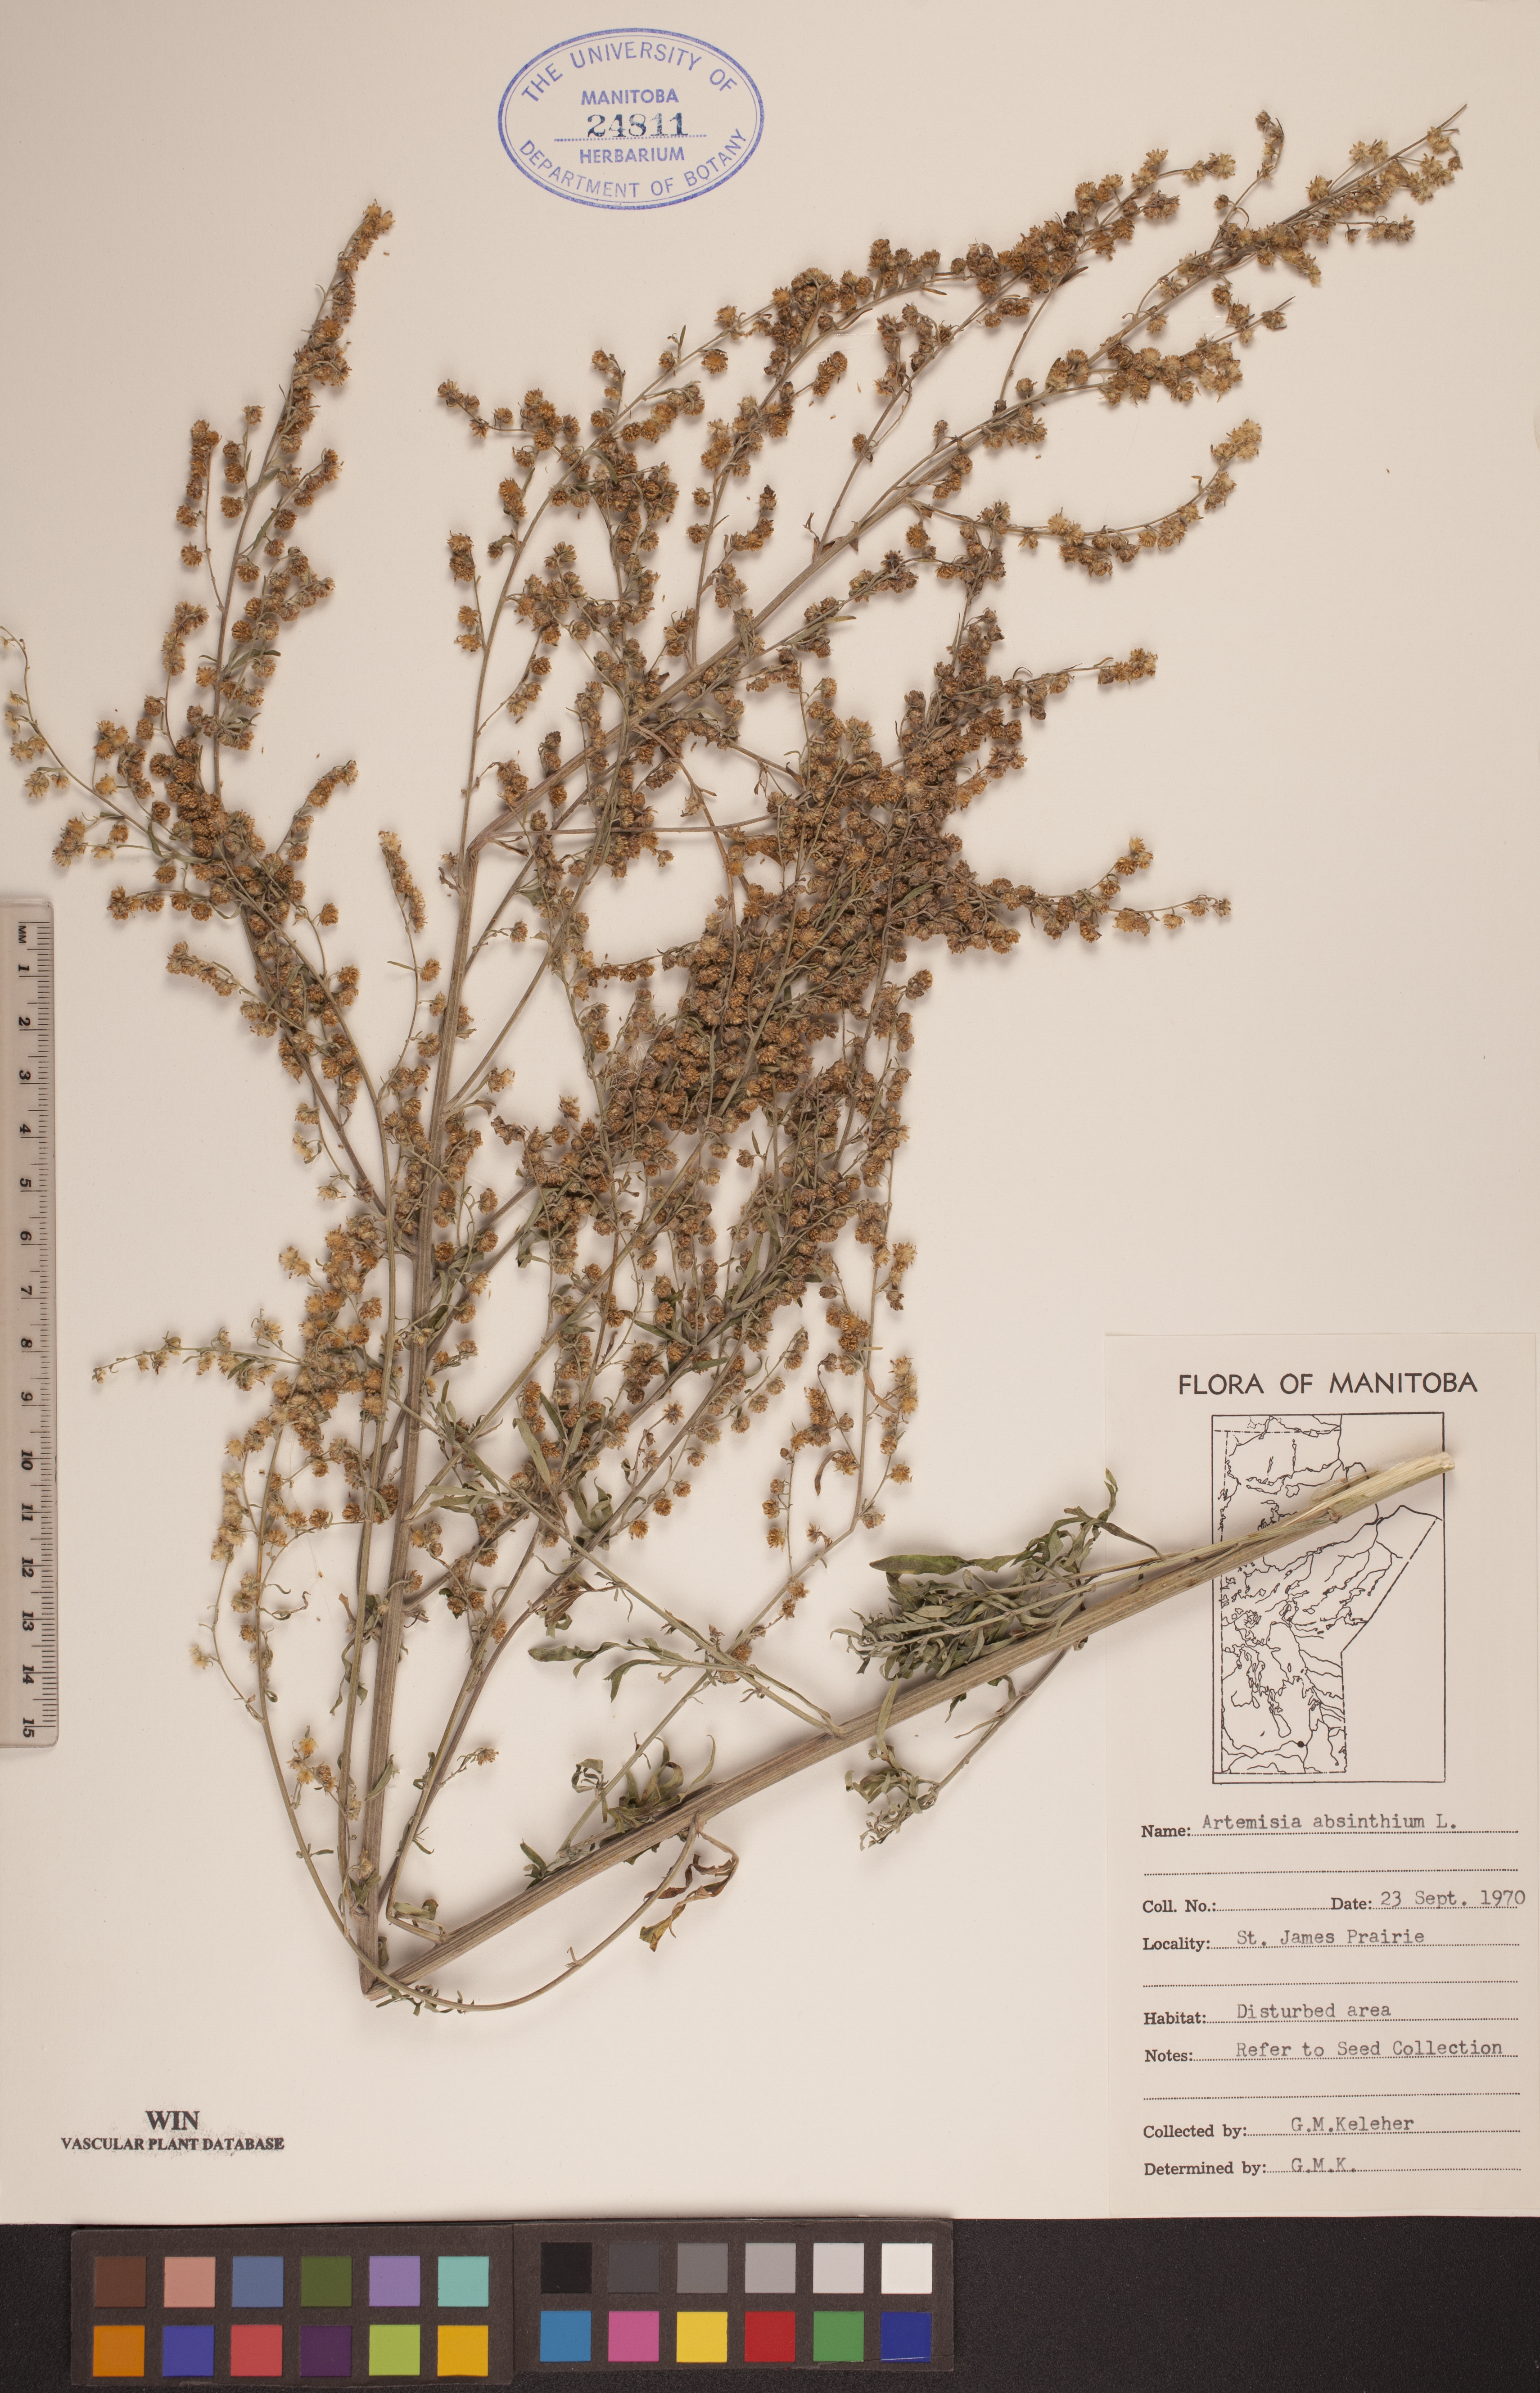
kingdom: Plantae
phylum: Tracheophyta
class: Magnoliopsida
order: Asterales
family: Asteraceae
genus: Artemisia
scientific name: Artemisia absinthium
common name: Wormwood
